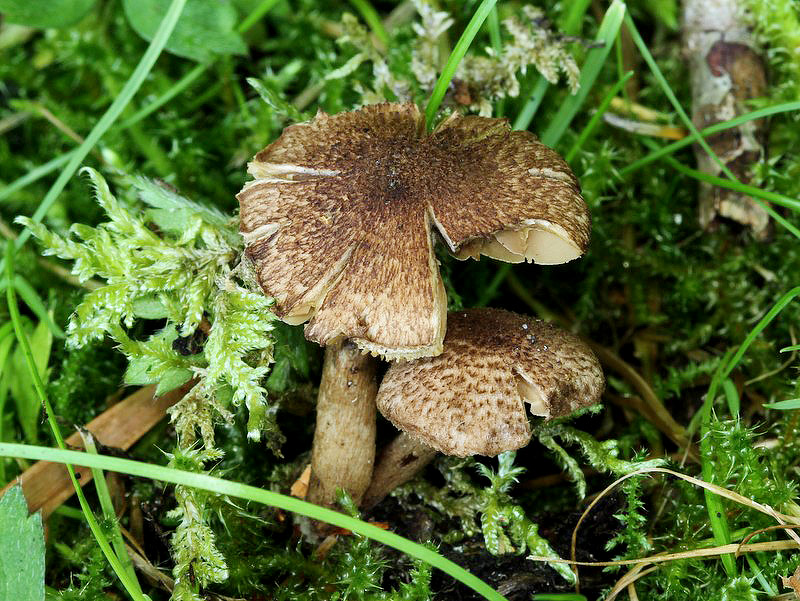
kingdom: Fungi
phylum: Basidiomycota
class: Agaricomycetes
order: Agaricales
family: Inocybaceae
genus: Inocybe
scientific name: Inocybe lanuginosa
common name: uldskællet trævlhat
